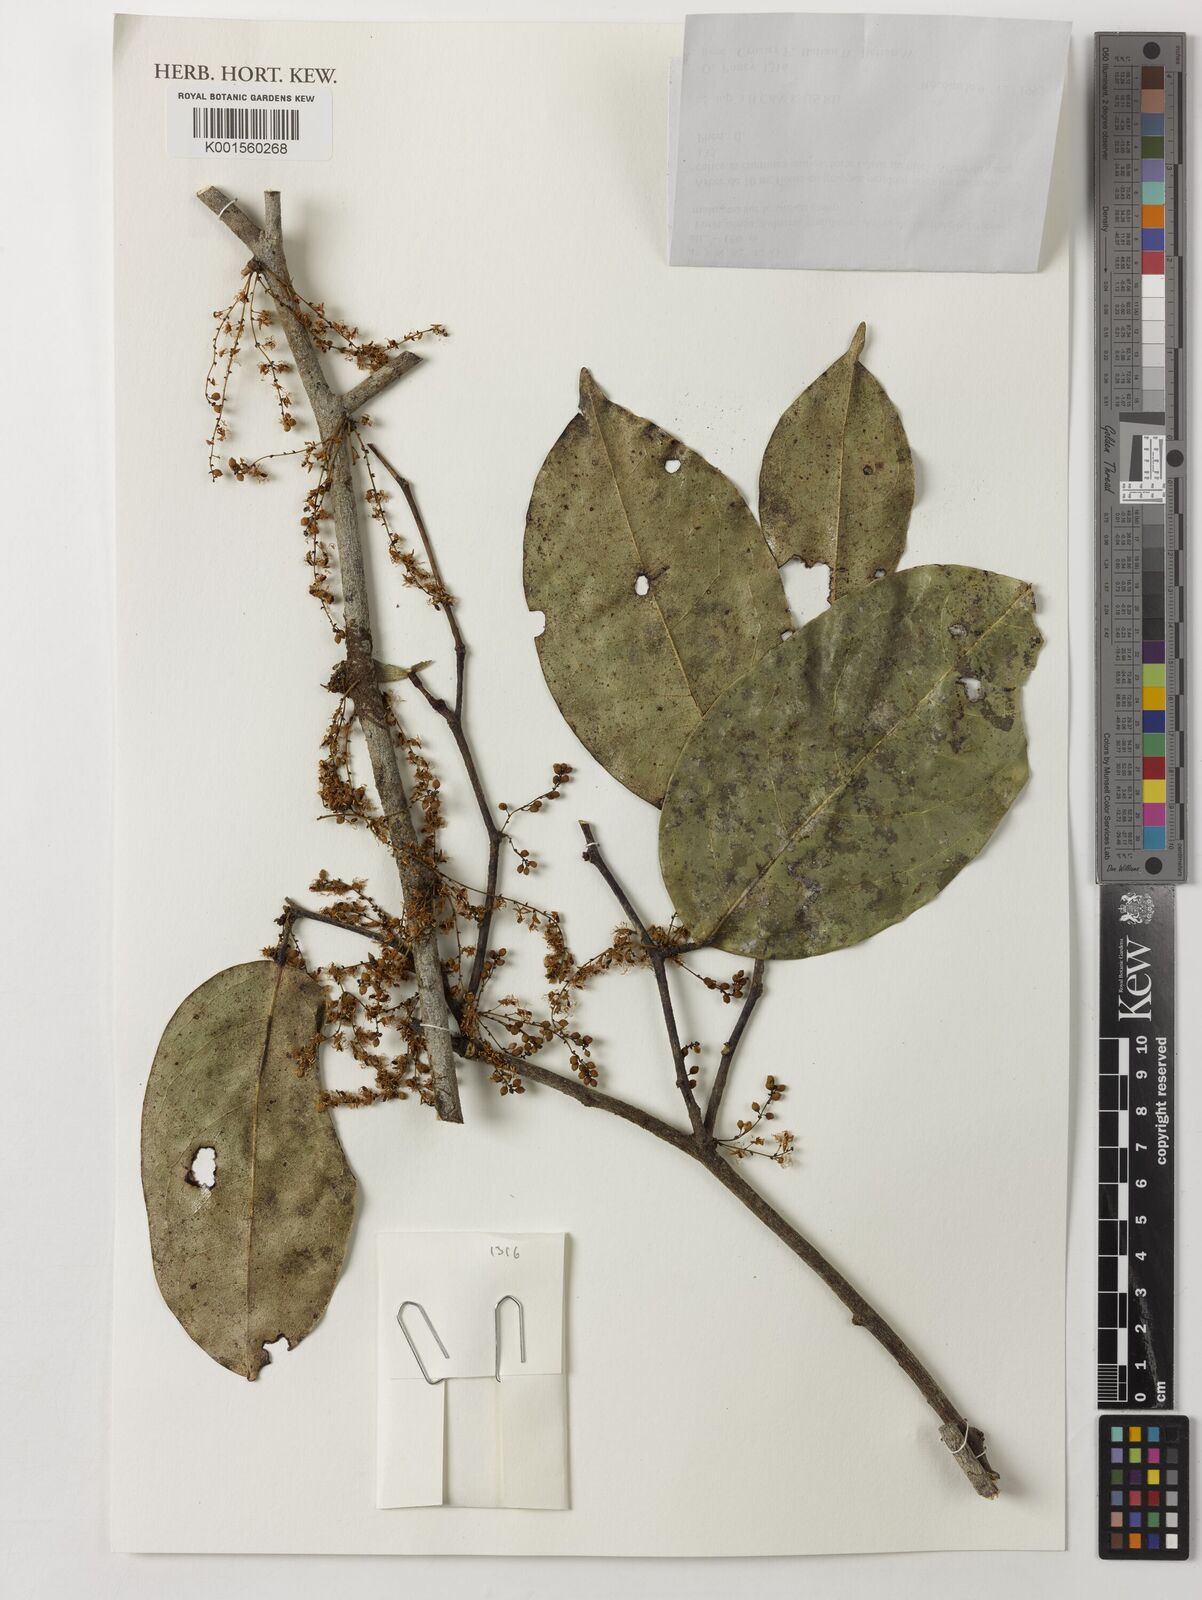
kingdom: Plantae
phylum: Tracheophyta
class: Magnoliopsida
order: Fabales
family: Fabaceae
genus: Bocoa
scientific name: Bocoa prouacensis
